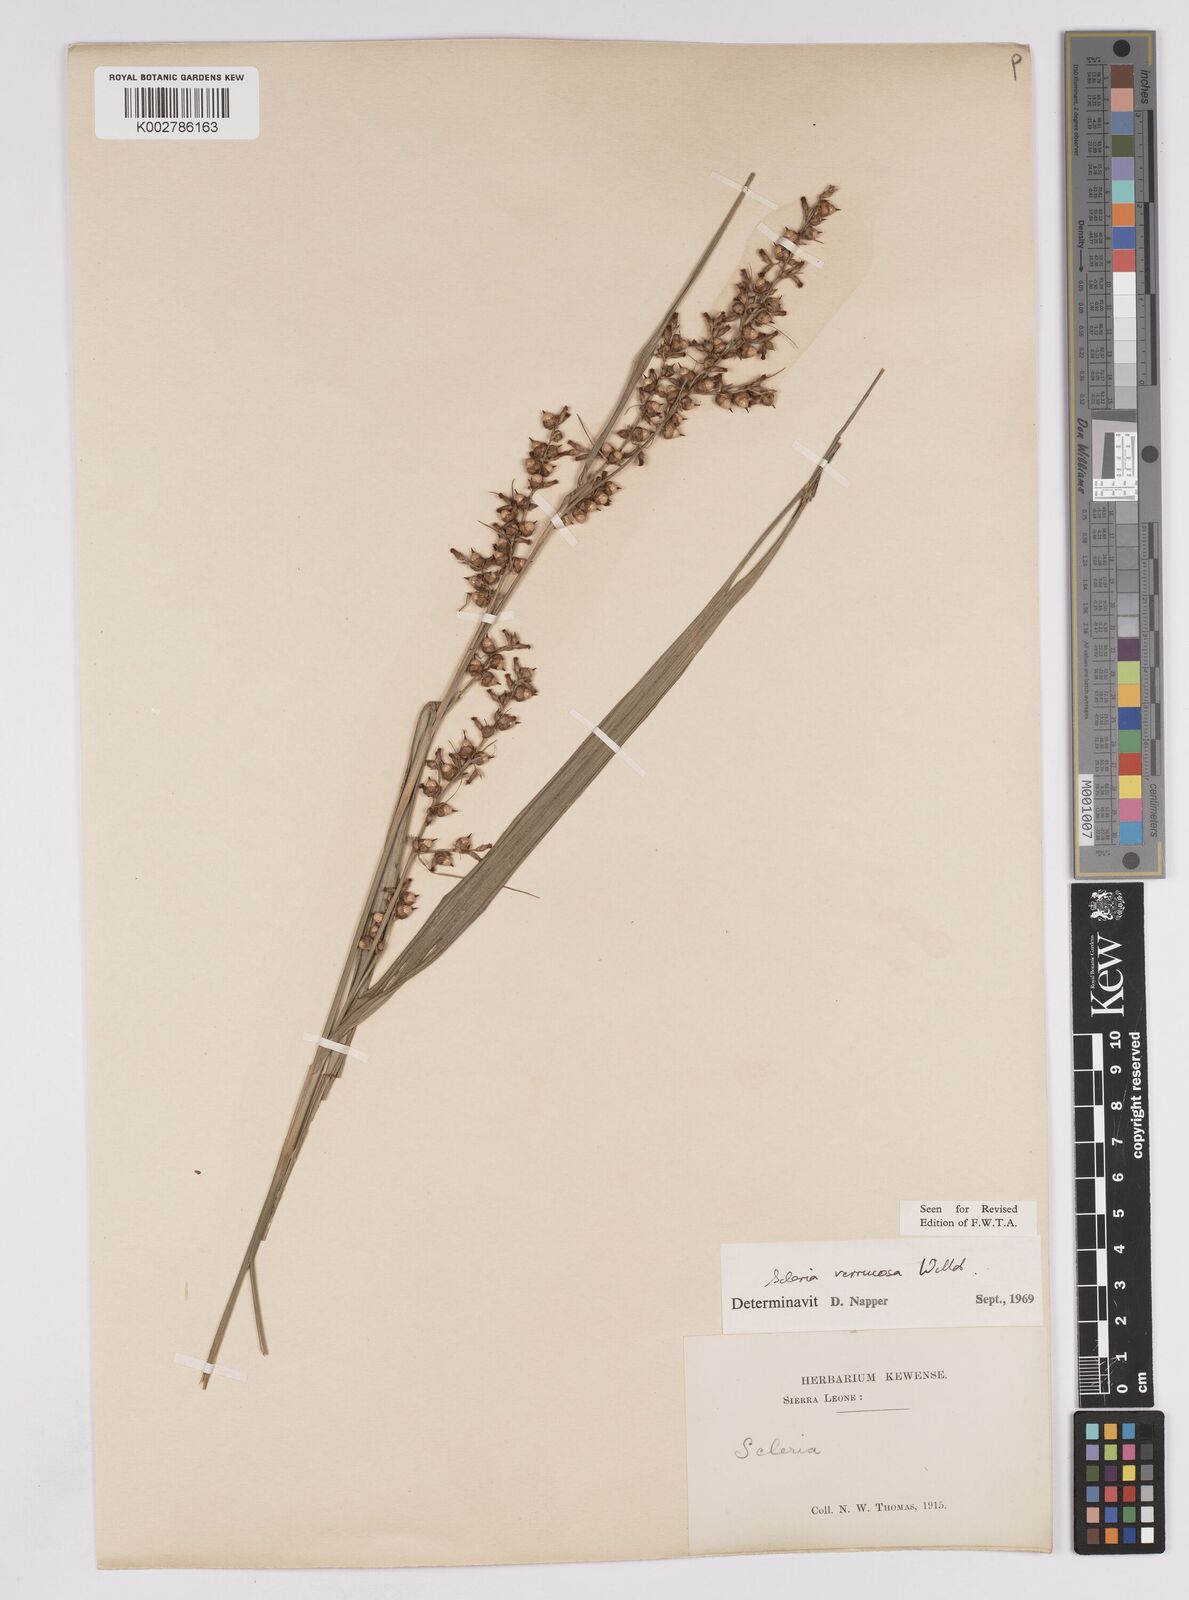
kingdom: Plantae
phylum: Tracheophyta
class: Liliopsida
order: Poales
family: Cyperaceae
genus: Scleria
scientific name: Scleria verrucosa
